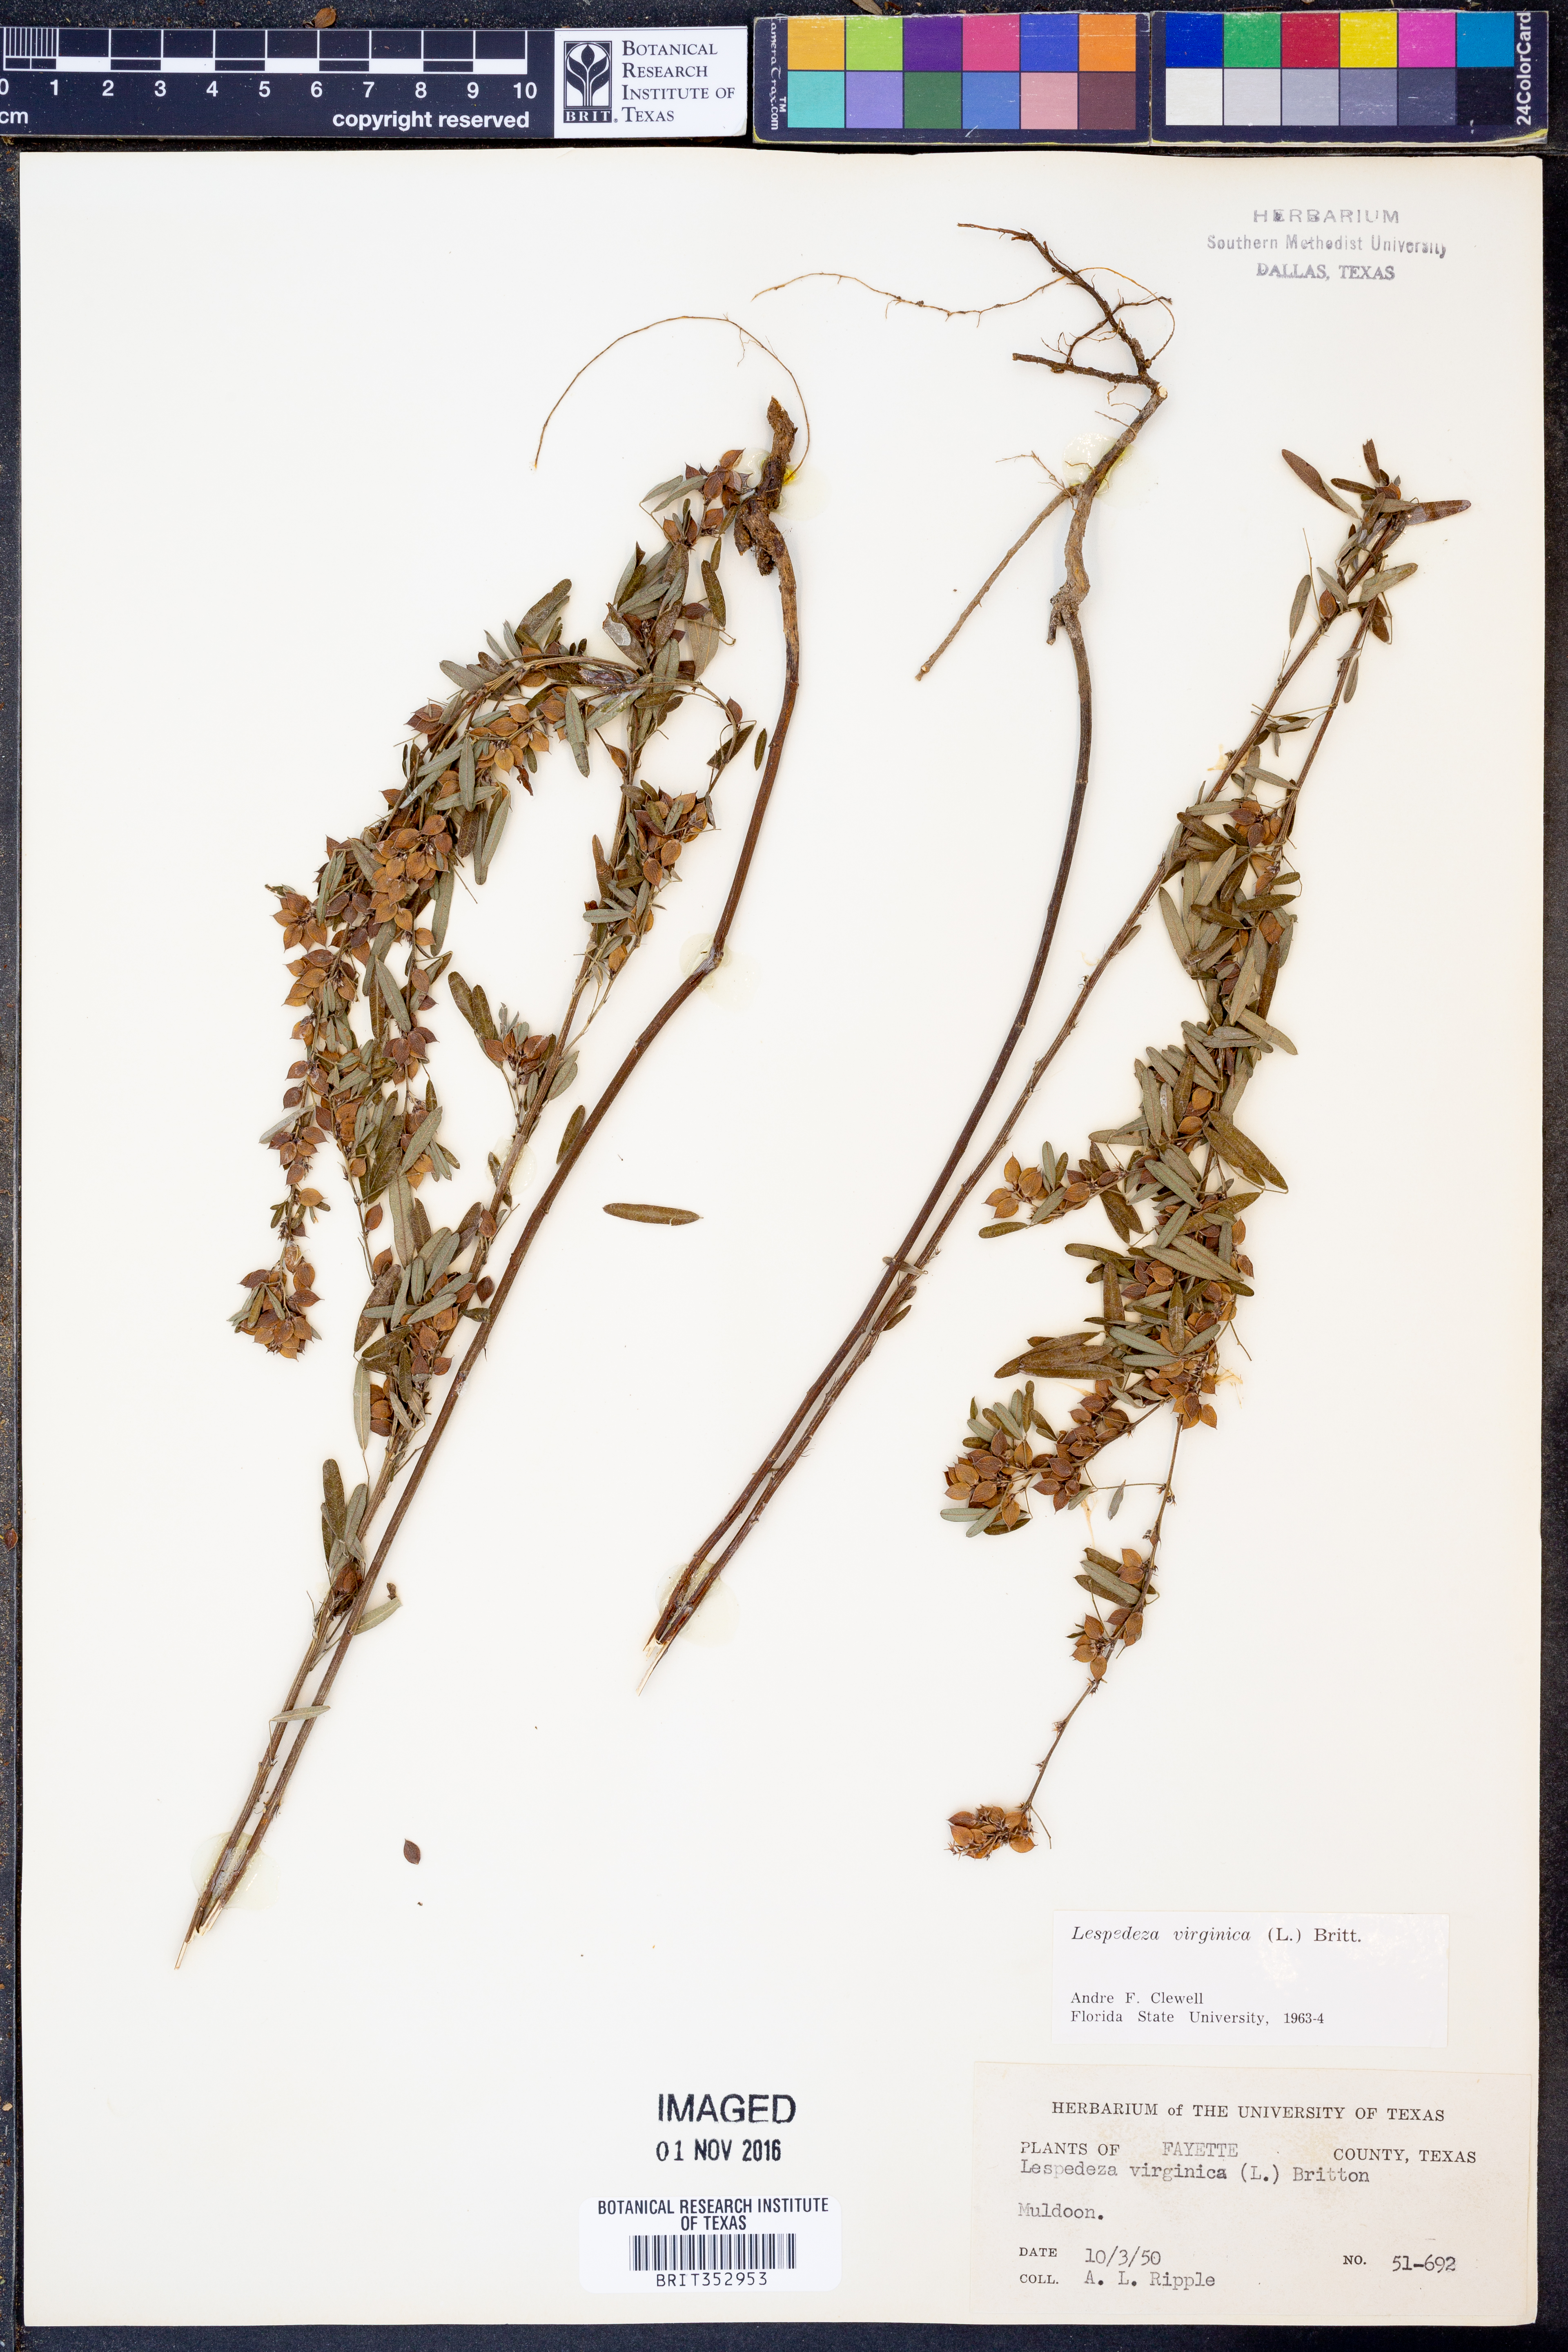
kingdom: Plantae
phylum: Tracheophyta
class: Magnoliopsida
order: Fabales
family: Fabaceae
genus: Lespedeza
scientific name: Lespedeza virginica
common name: Slender bush-clover
